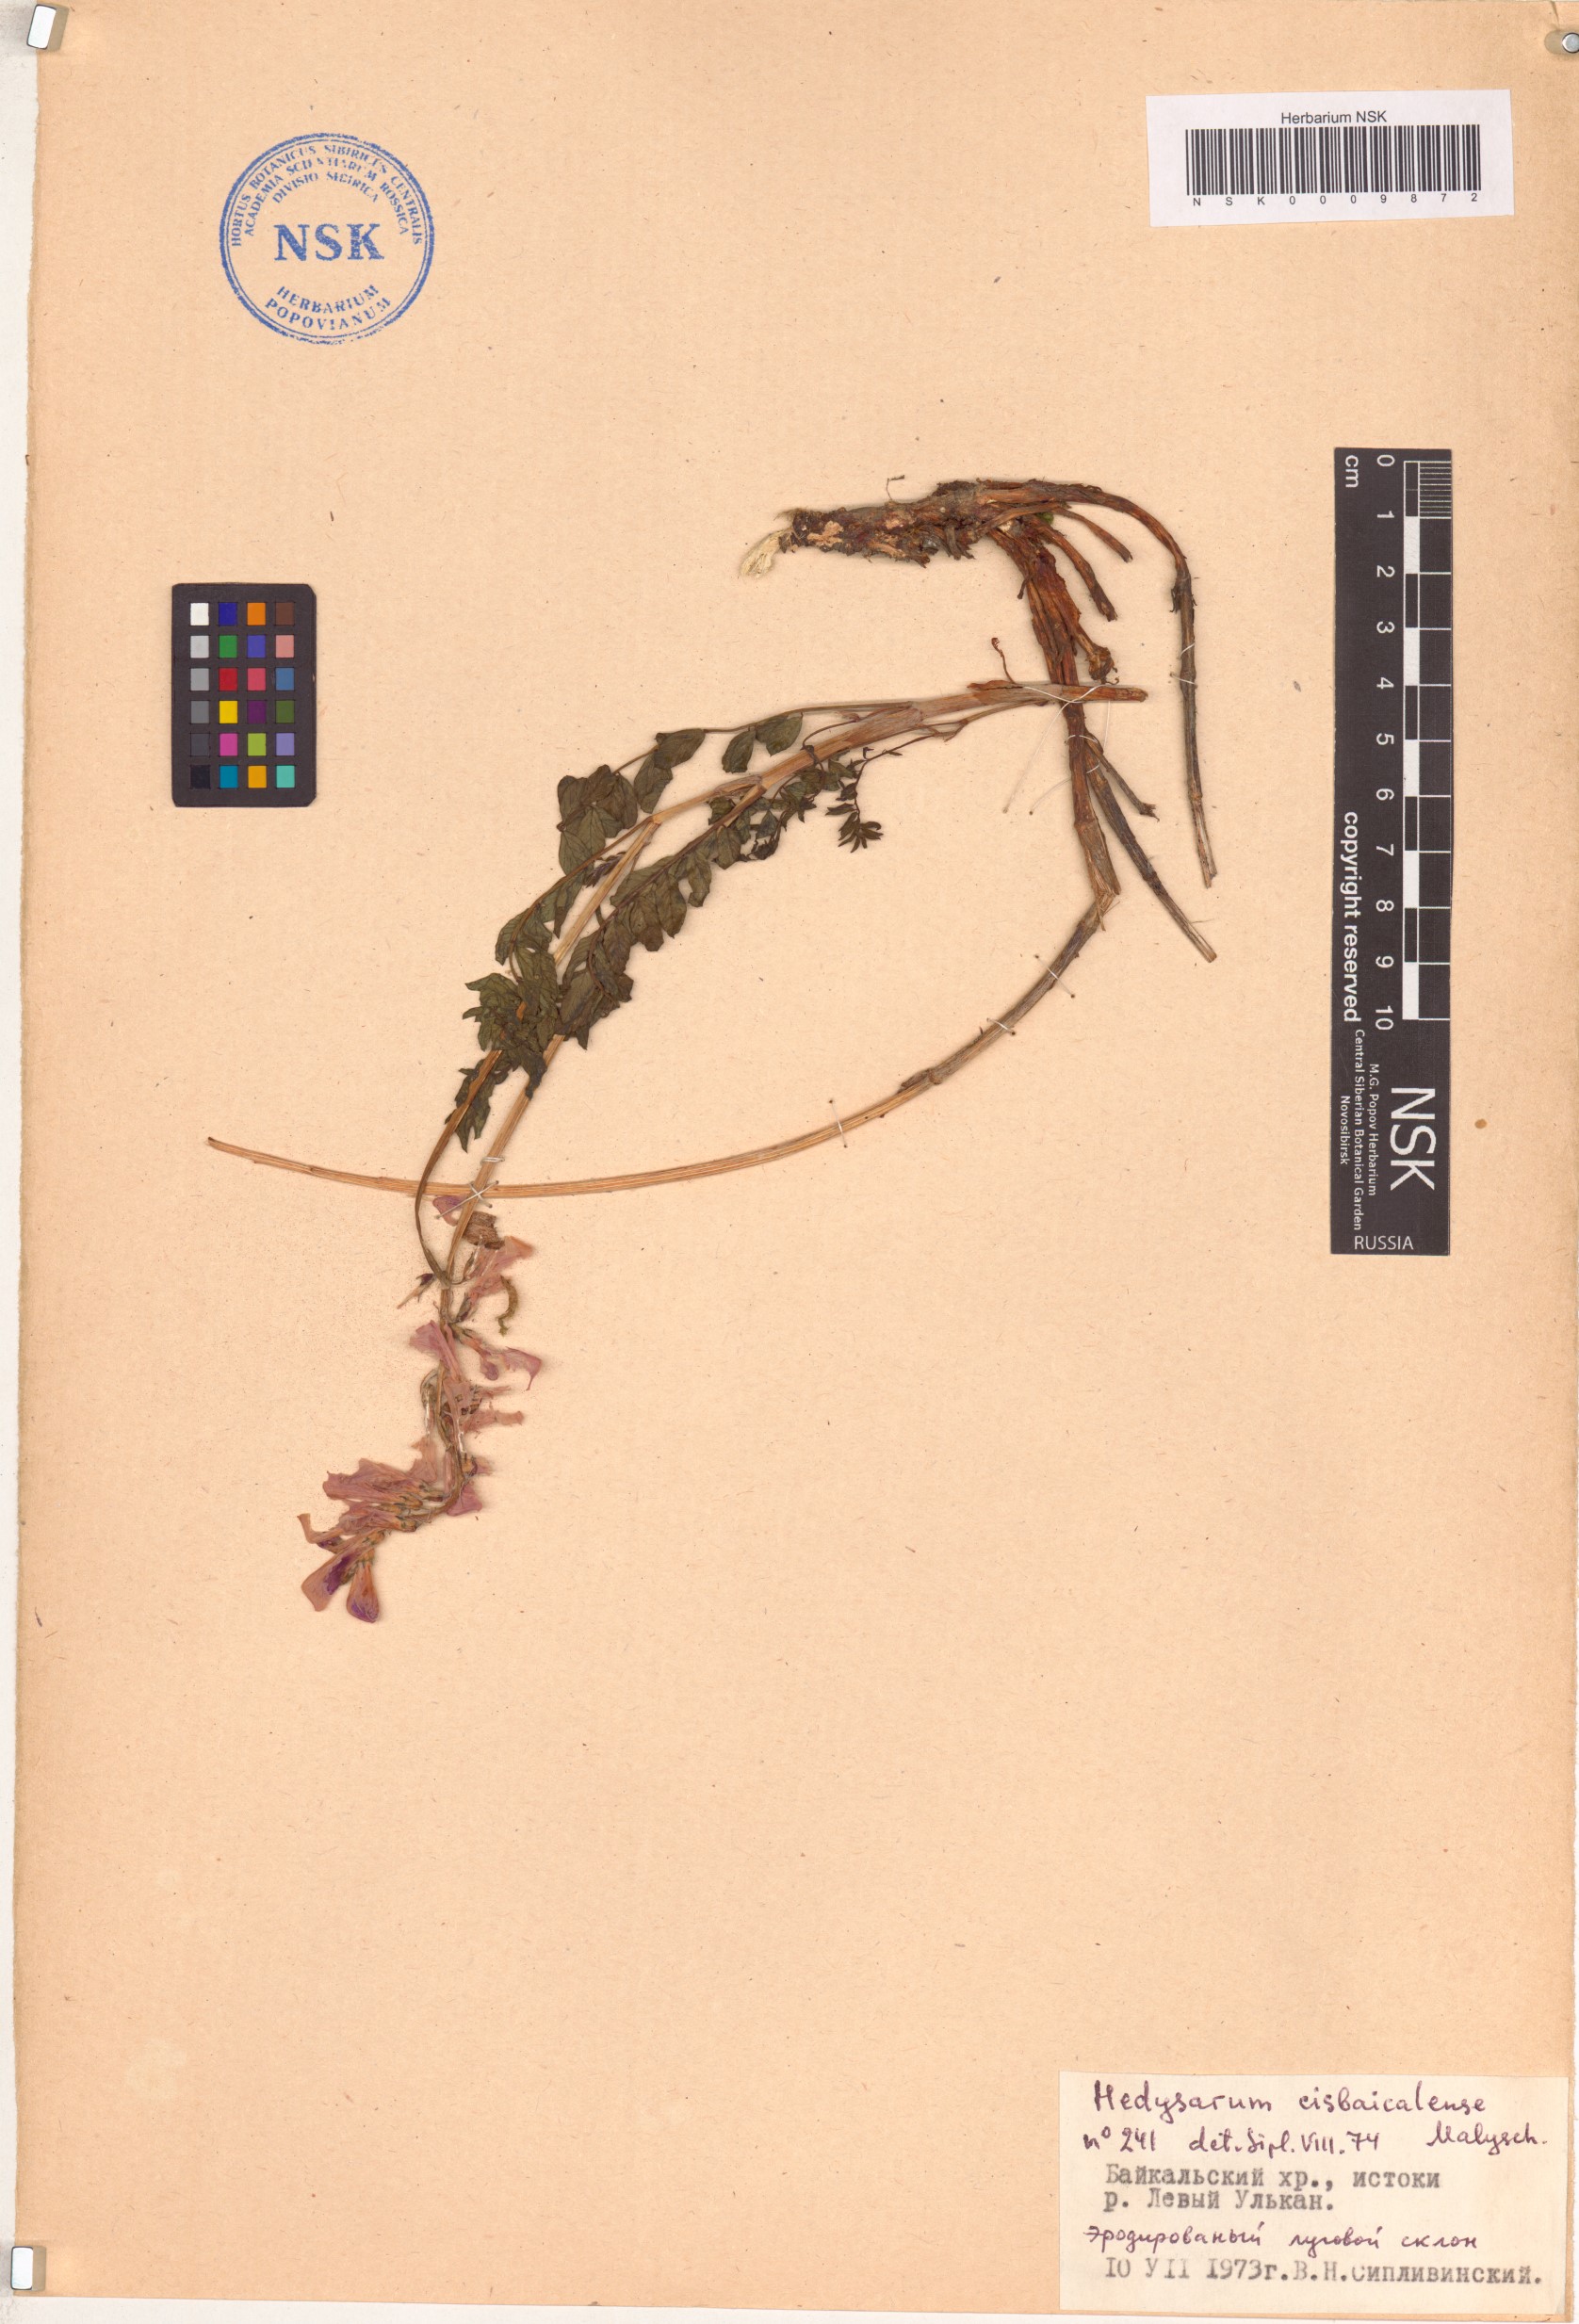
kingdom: Plantae
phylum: Tracheophyta
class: Magnoliopsida
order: Fabales
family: Fabaceae
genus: Hedysarum
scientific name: Hedysarum cisbaicalense
